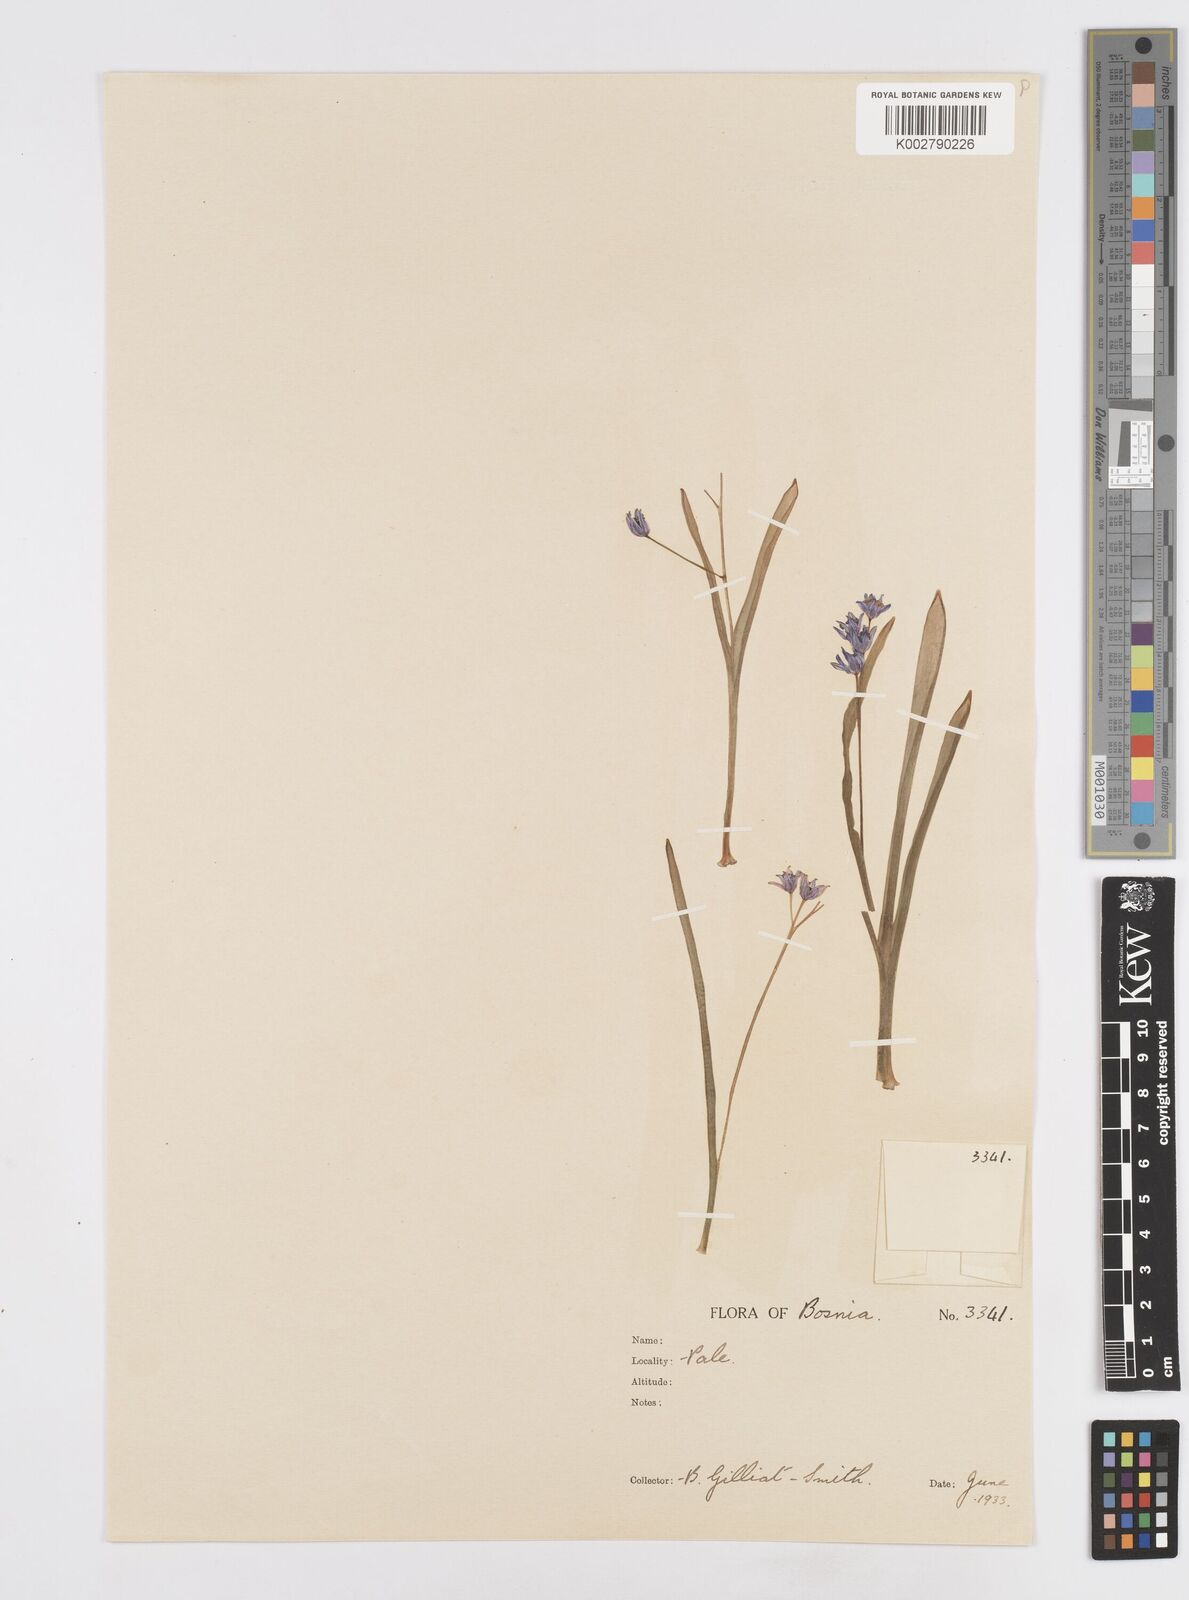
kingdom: Plantae
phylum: Tracheophyta
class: Liliopsida
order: Asparagales
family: Asparagaceae
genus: Scilla
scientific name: Scilla bifolia
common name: Alpine squill
